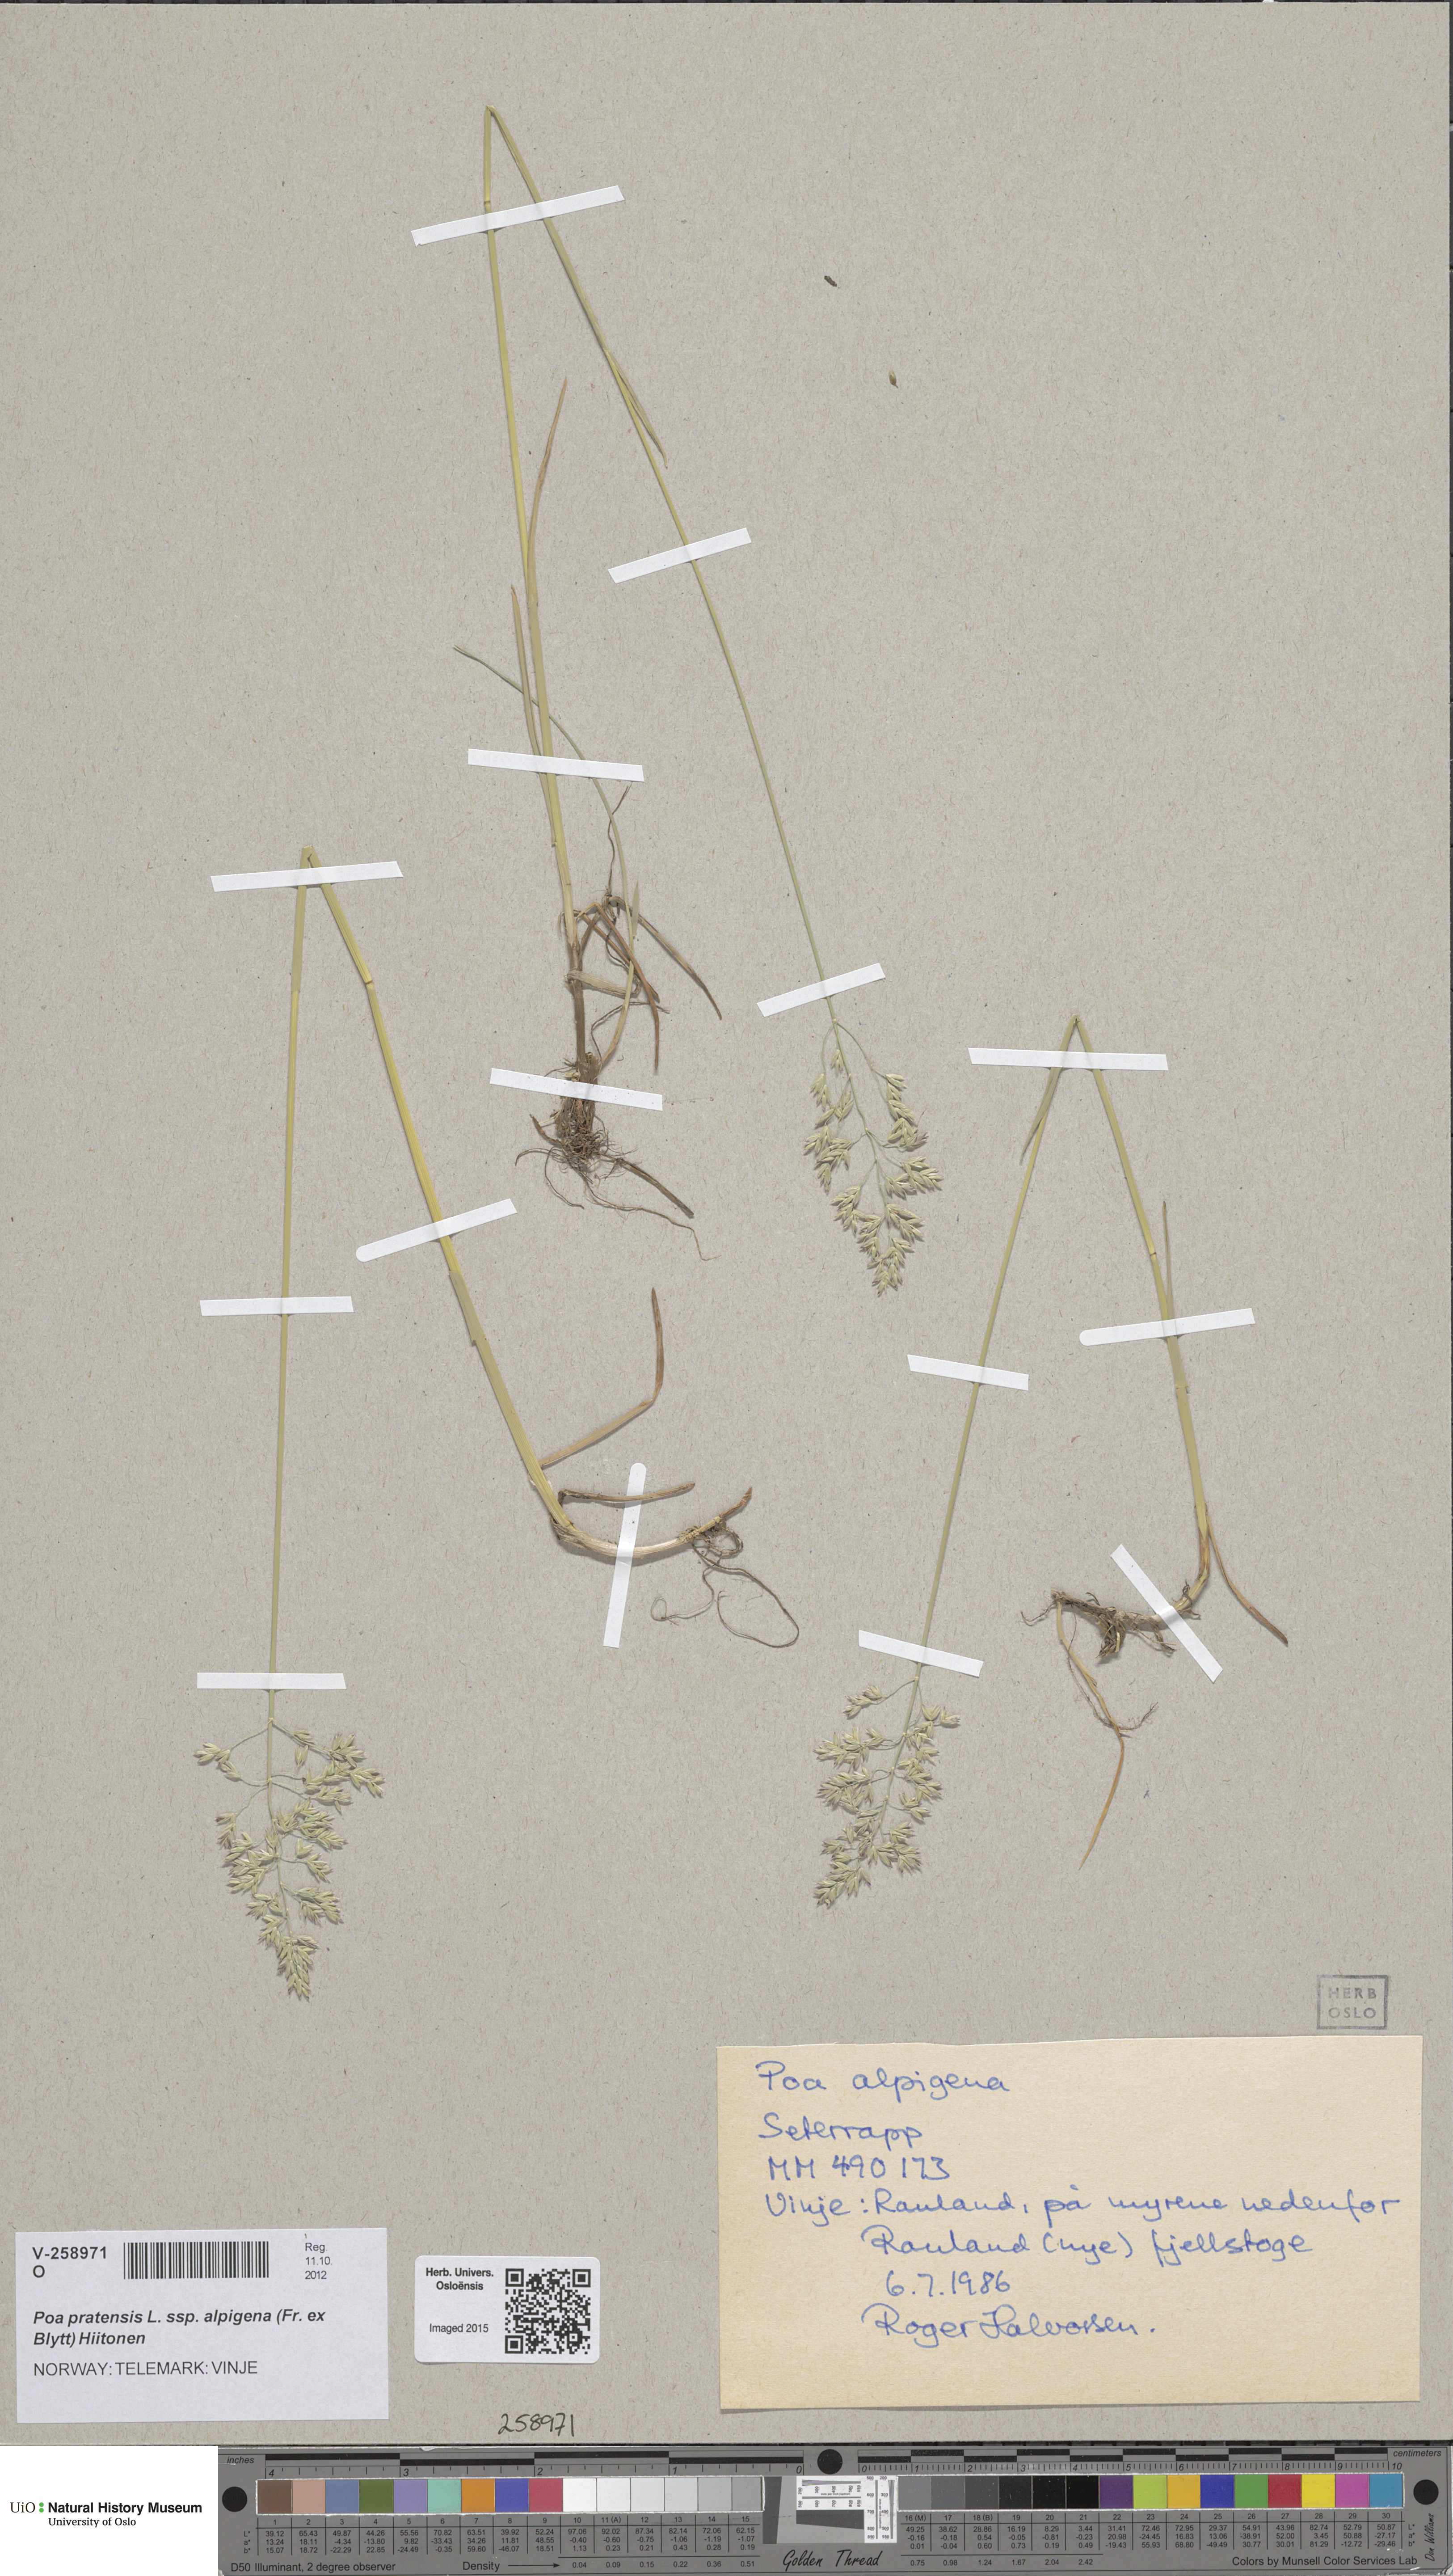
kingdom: Plantae
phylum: Tracheophyta
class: Liliopsida
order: Poales
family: Poaceae
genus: Poa
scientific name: Poa alpigena
